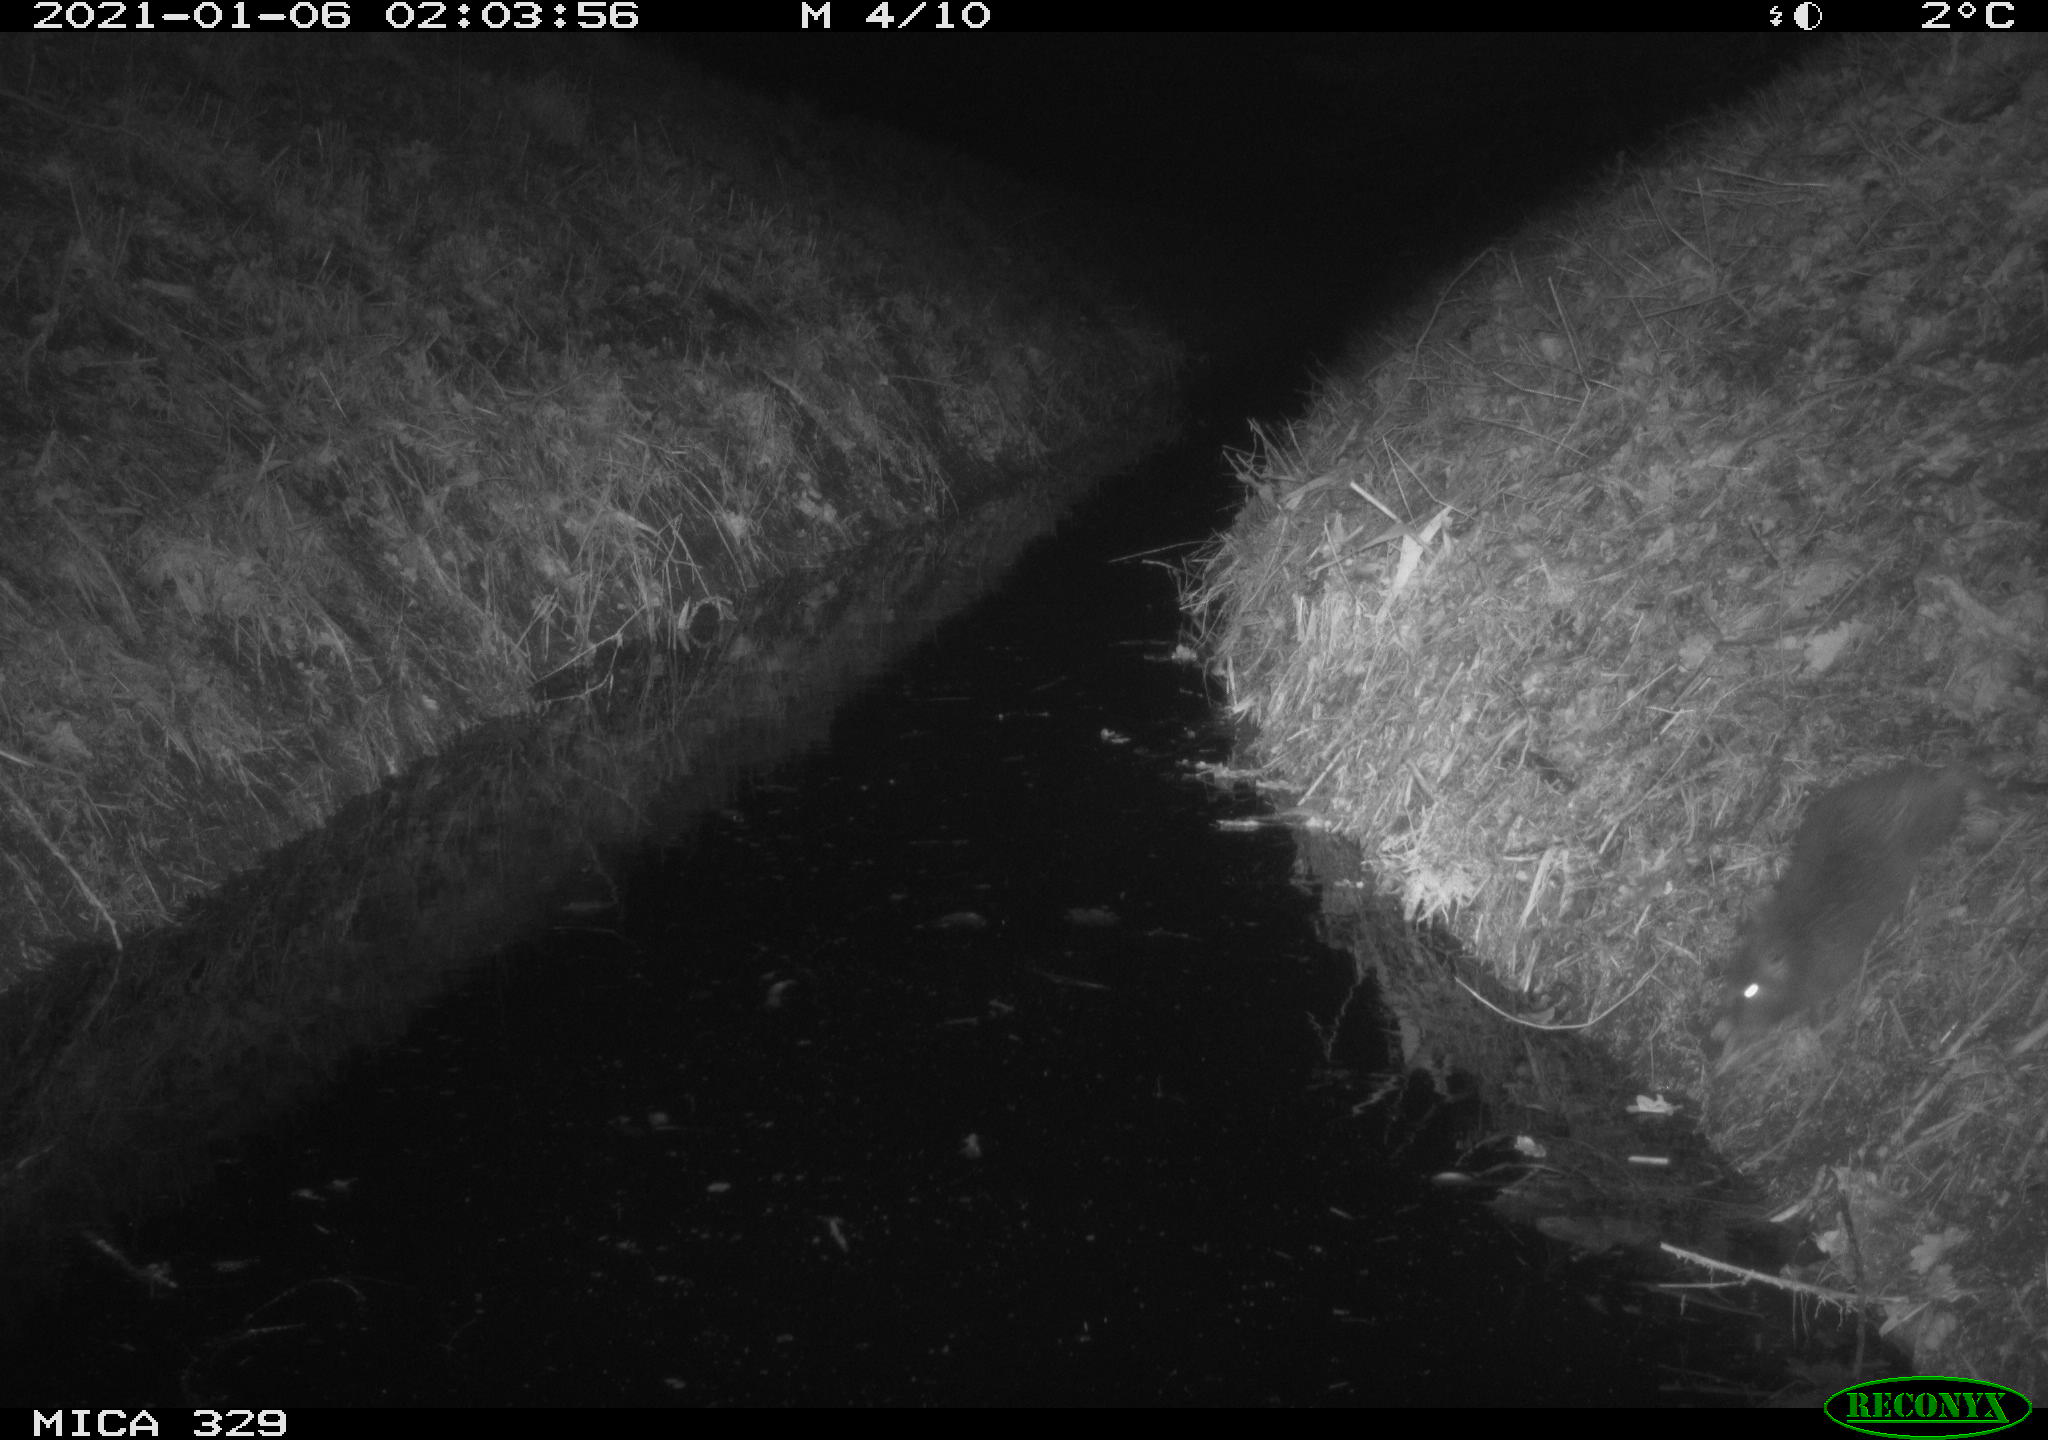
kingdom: Animalia
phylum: Chordata
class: Mammalia
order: Rodentia
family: Cricetidae
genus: Ondatra
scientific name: Ondatra zibethicus
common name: Muskrat
